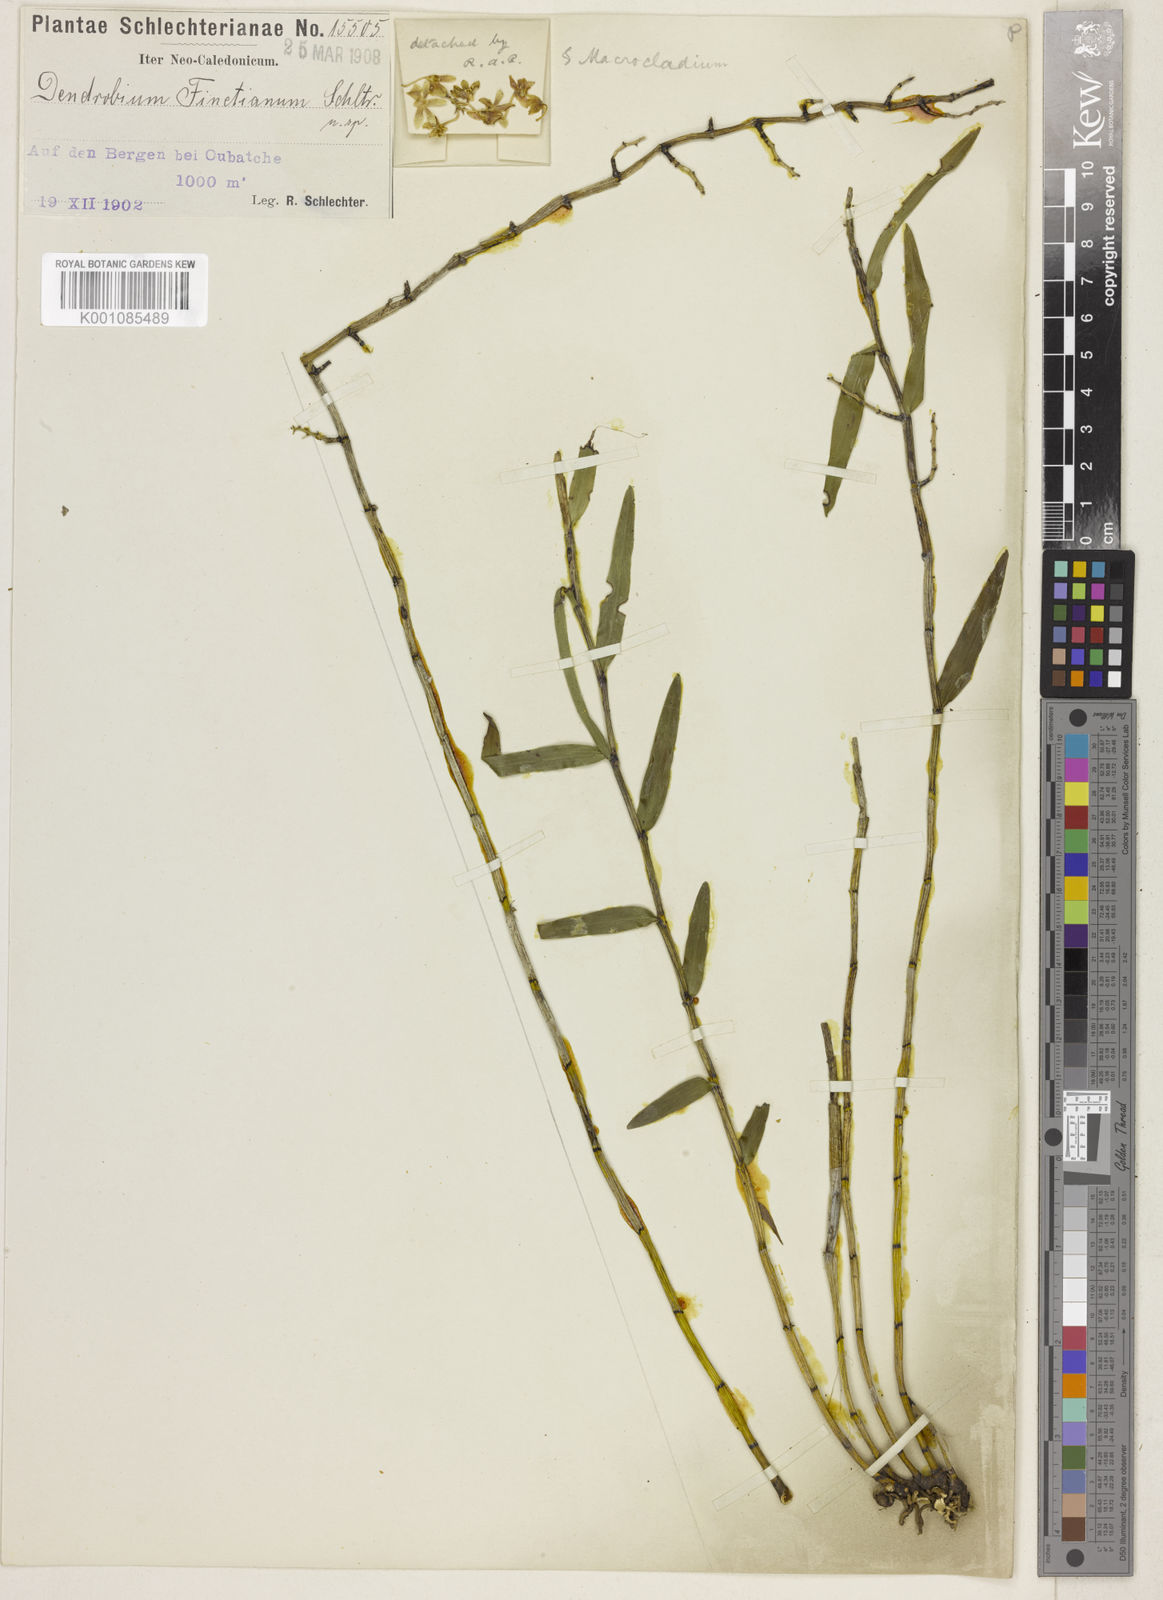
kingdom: Plantae
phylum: Tracheophyta
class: Liliopsida
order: Asparagales
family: Orchidaceae
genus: Dendrobium
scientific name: Dendrobium finetianum
